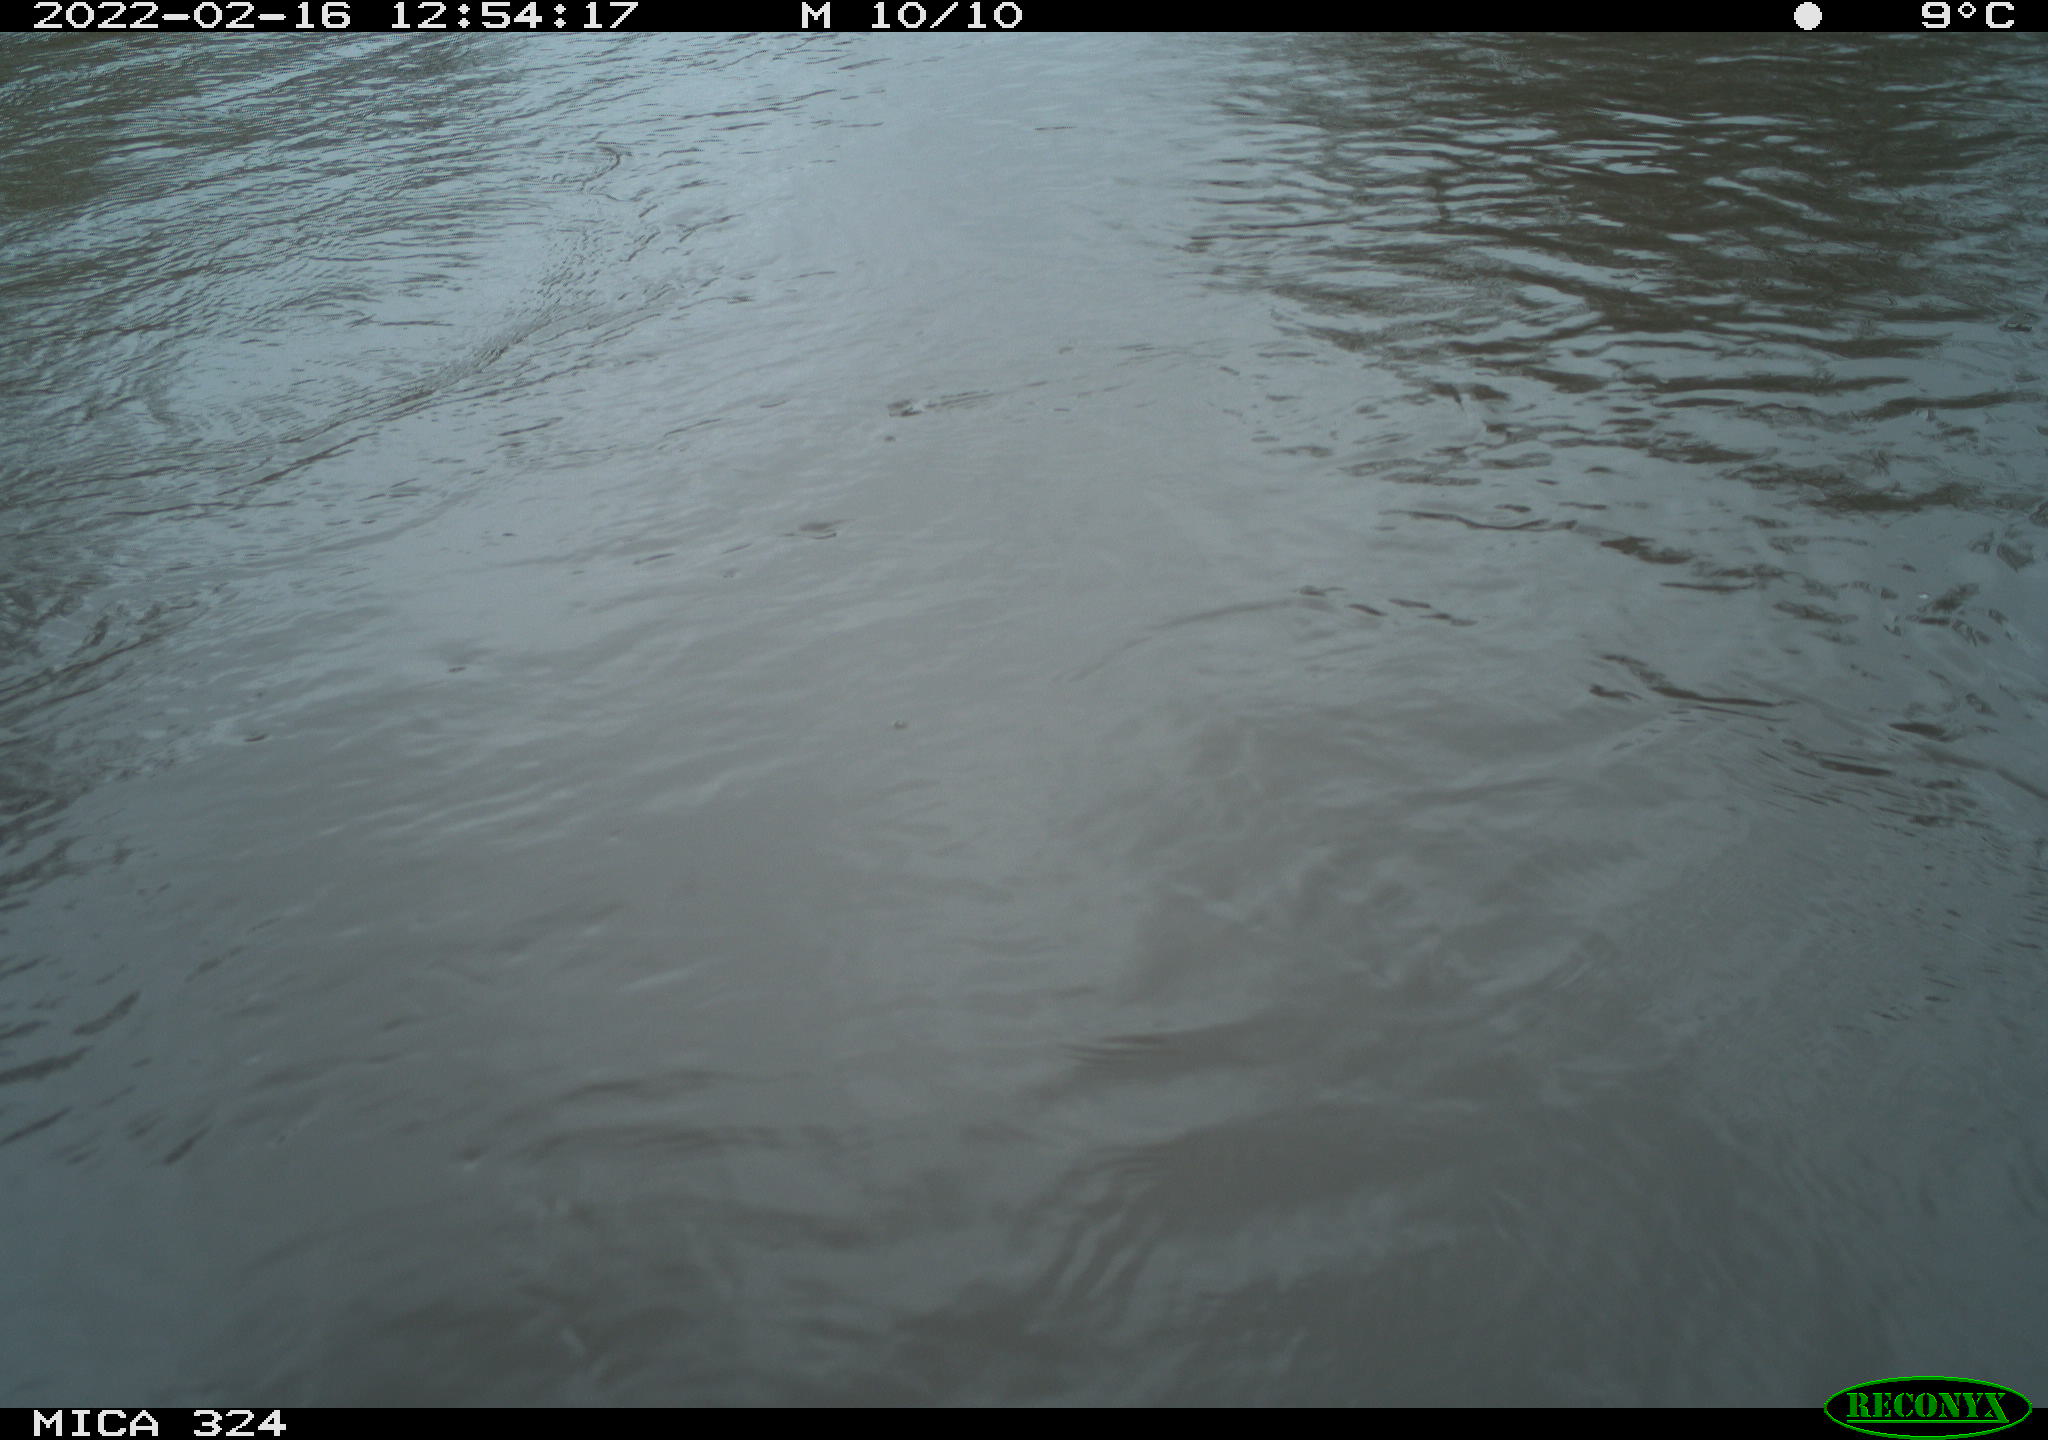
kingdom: Animalia
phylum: Chordata
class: Mammalia
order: Rodentia
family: Cricetidae
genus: Ondatra
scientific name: Ondatra zibethicus
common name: Muskrat
